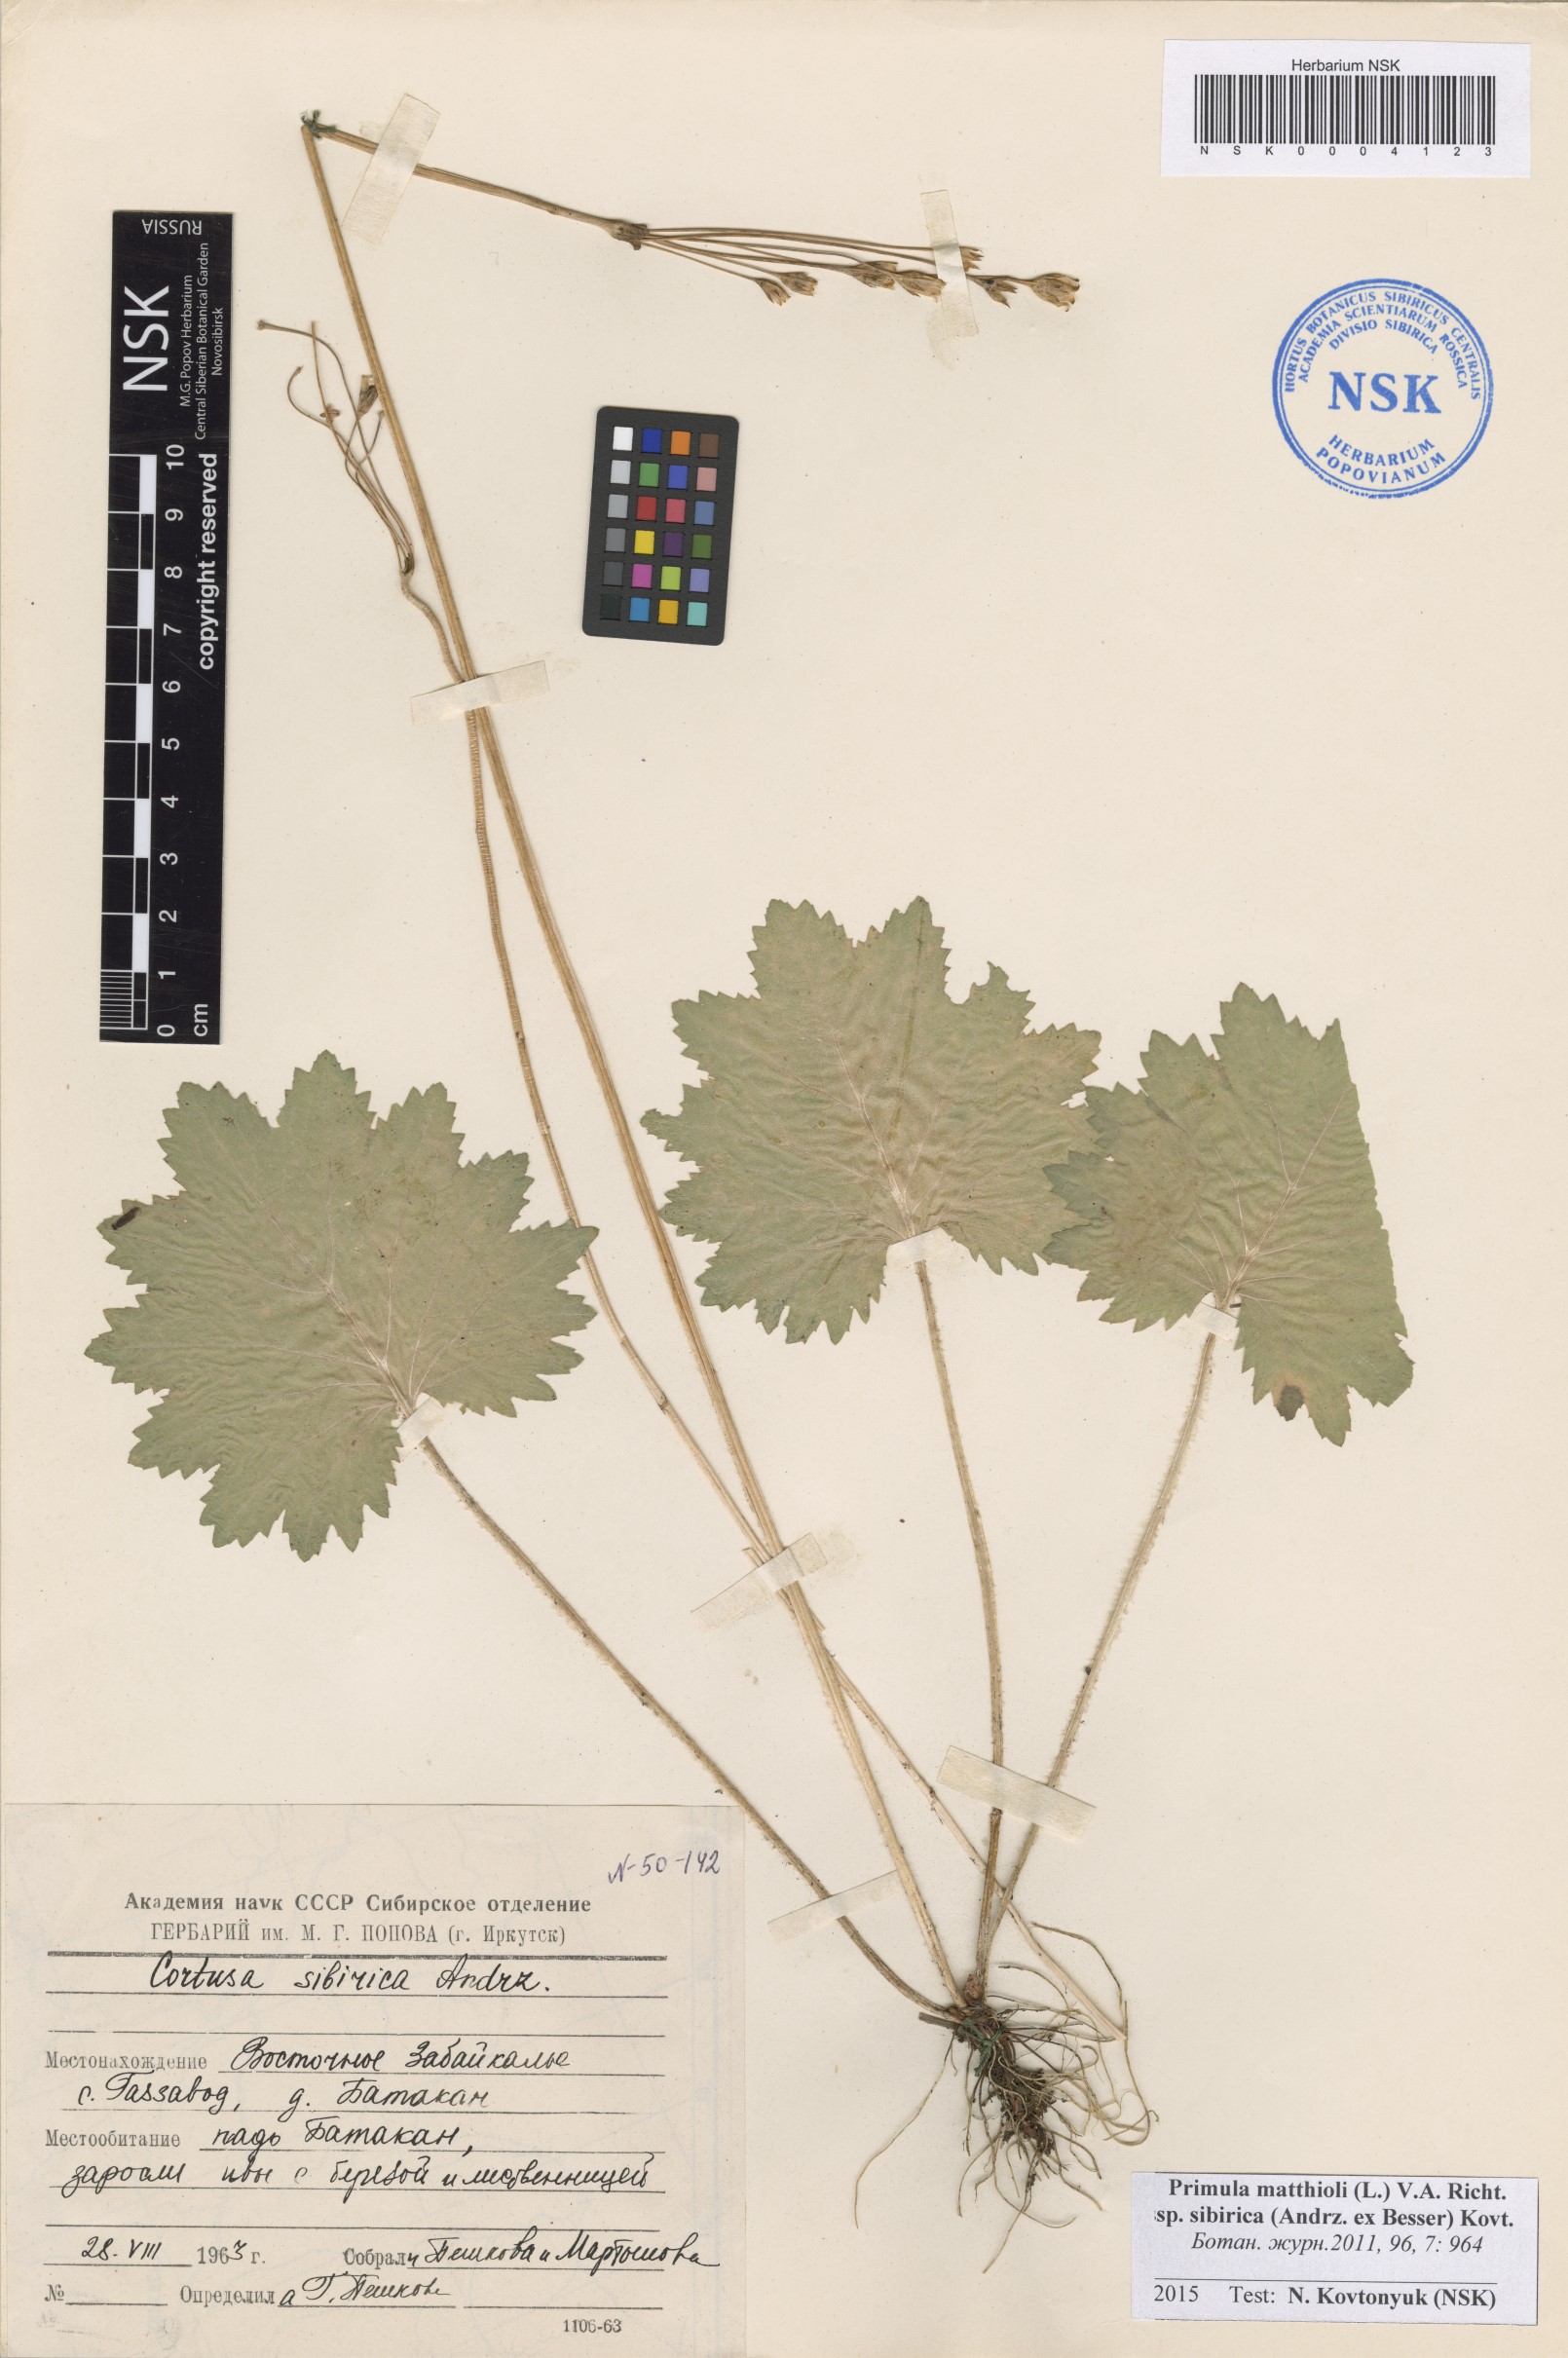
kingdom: Plantae
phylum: Tracheophyta
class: Magnoliopsida
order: Ericales
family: Primulaceae
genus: Primula
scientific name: Primula matthioli
